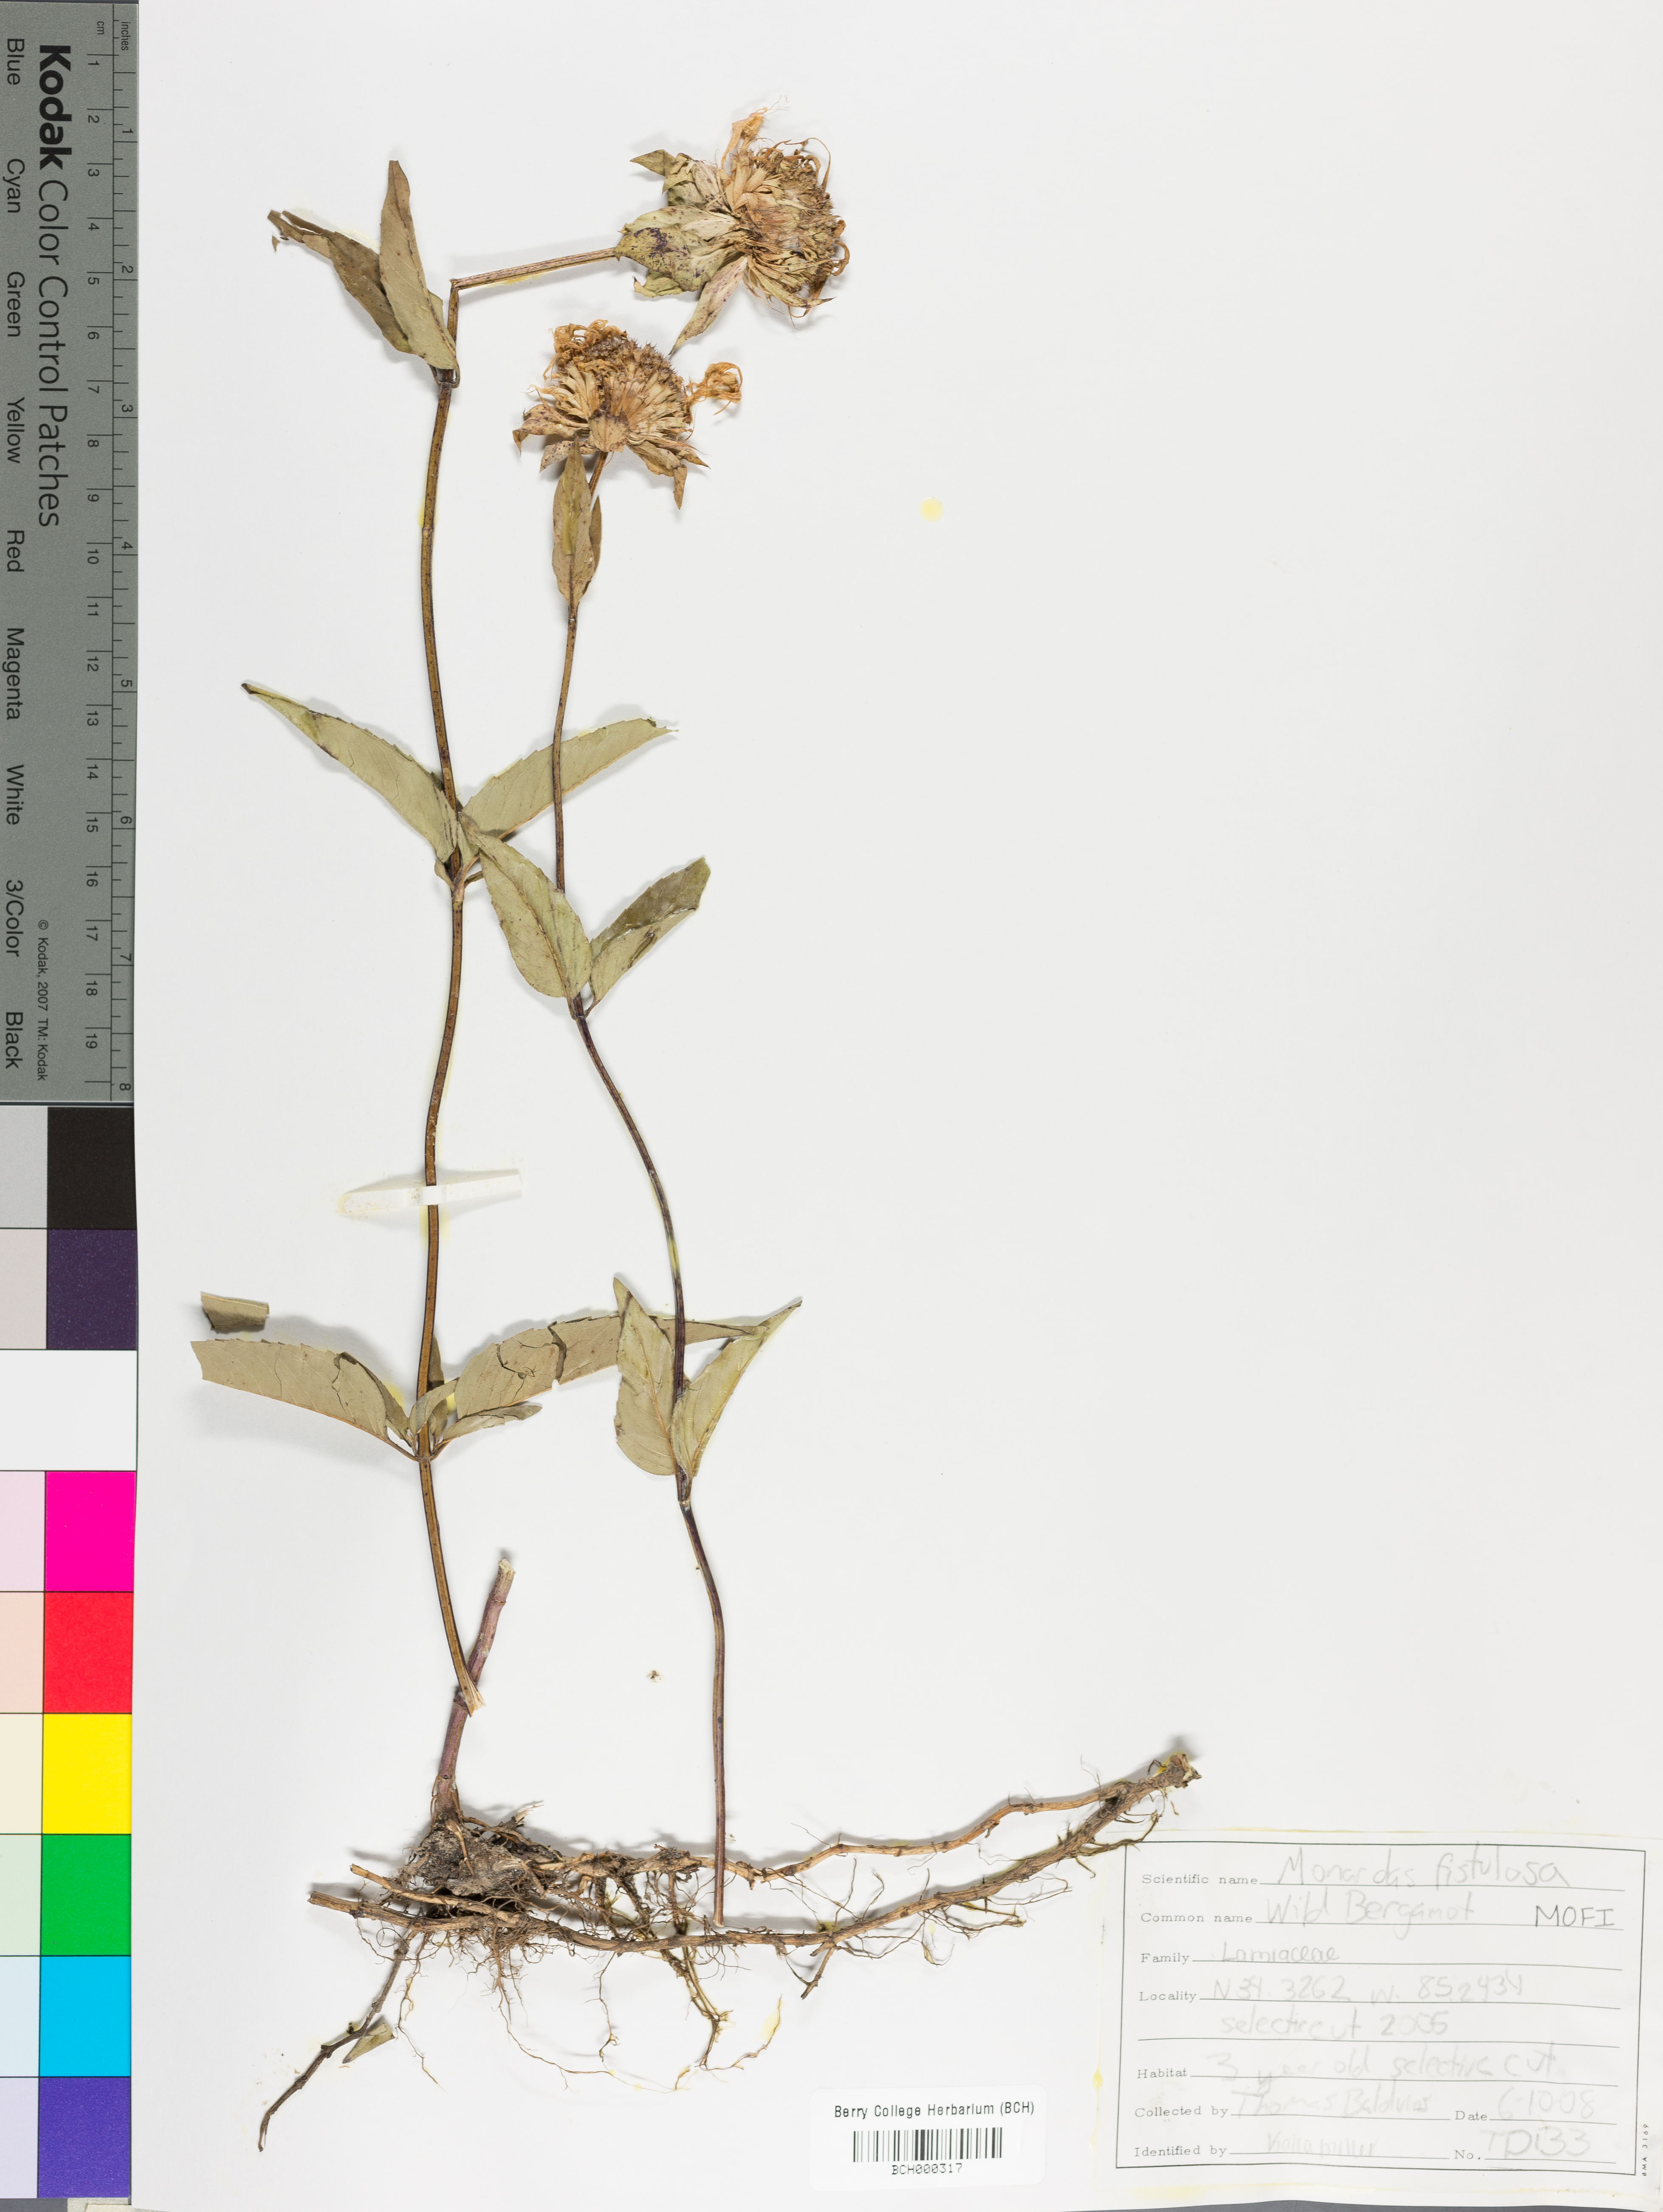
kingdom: Plantae
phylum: Tracheophyta
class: Magnoliopsida
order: Lamiales
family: Lamiaceae
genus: Monarda
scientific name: Monarda fistulosa
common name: Purple beebalm
